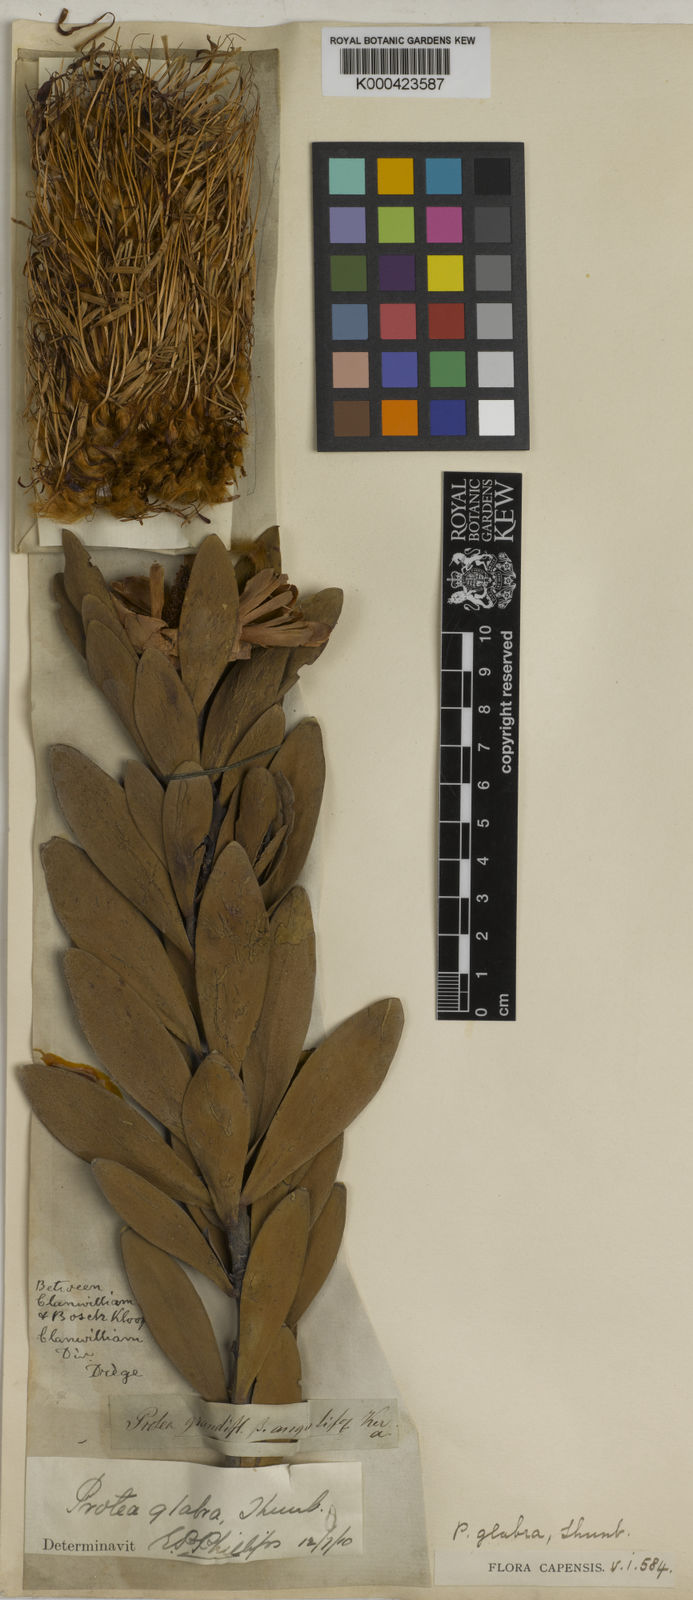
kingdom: Plantae
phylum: Tracheophyta
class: Magnoliopsida
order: Proteales
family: Proteaceae
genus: Protea
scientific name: Protea glabra
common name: Chestnut sugarbush
